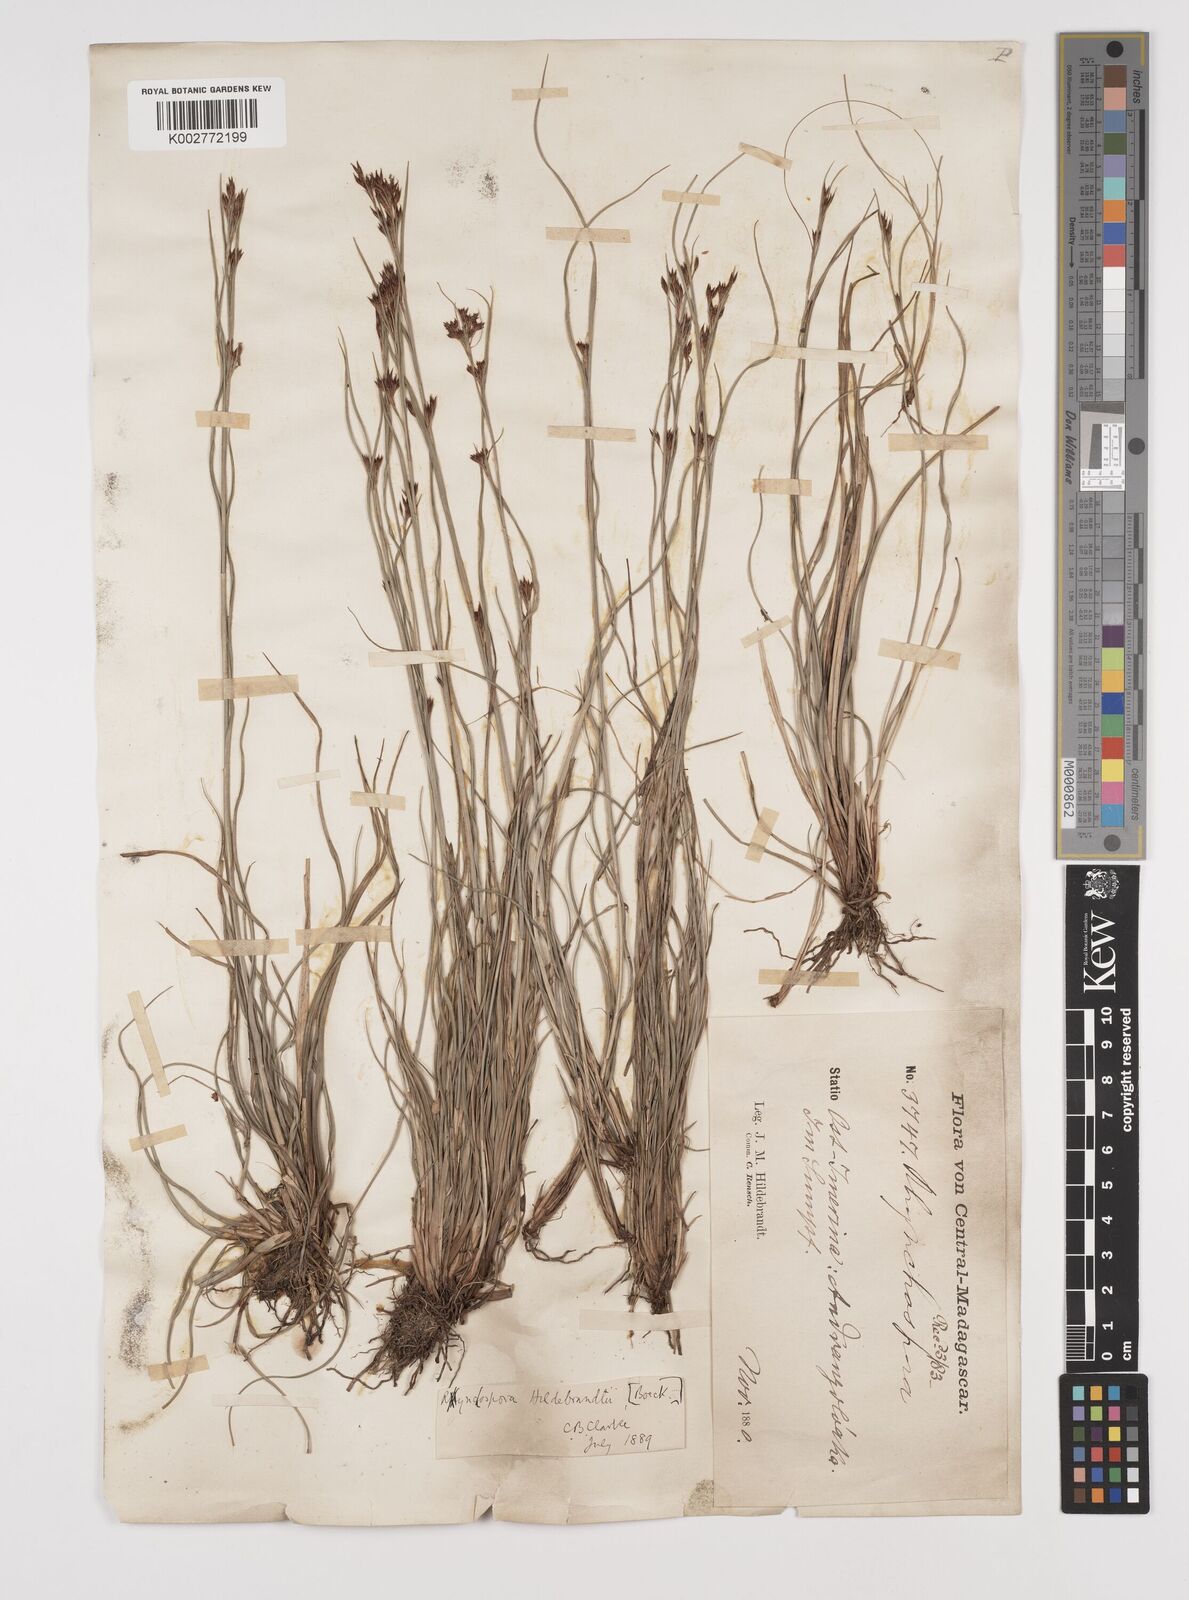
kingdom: Plantae
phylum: Tracheophyta
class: Liliopsida
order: Poales
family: Cyperaceae
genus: Rhynchospora
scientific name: Rhynchospora hildebrandtii
